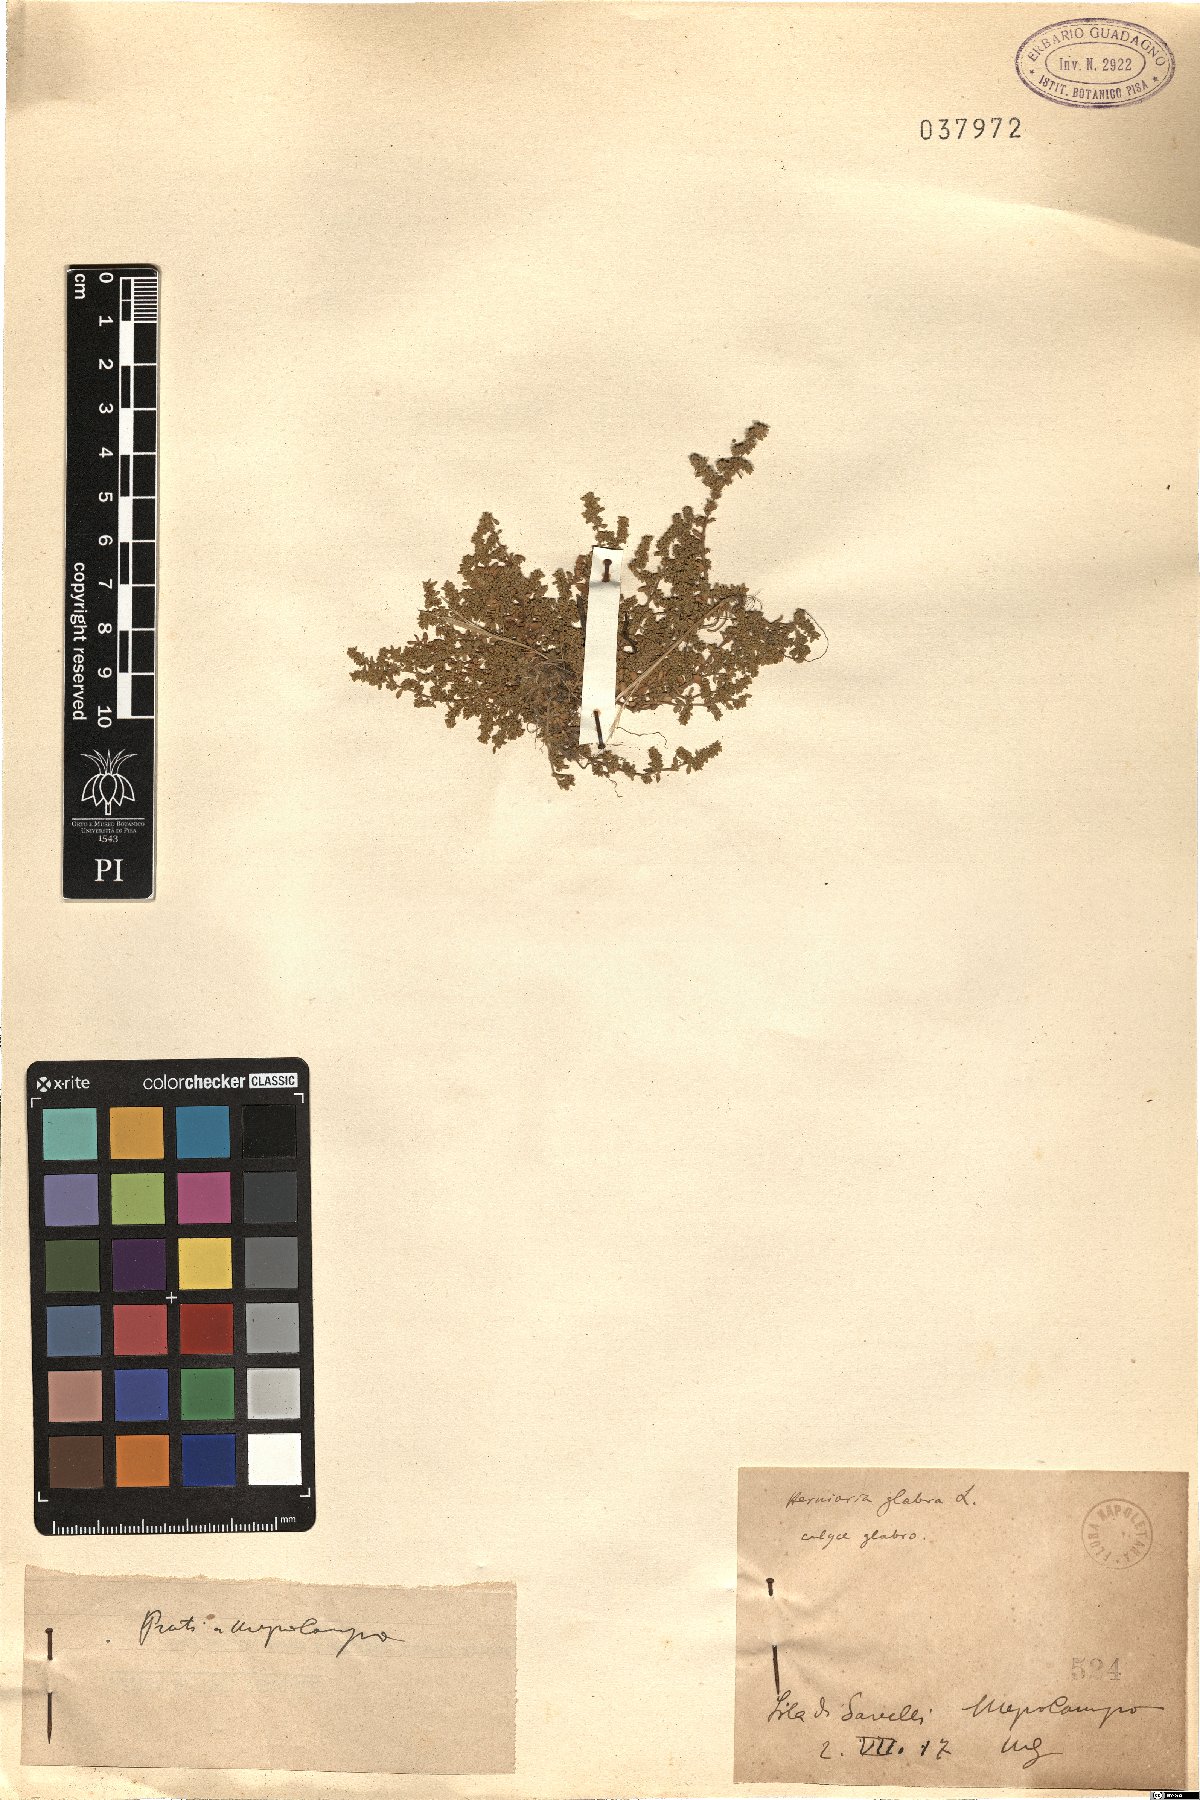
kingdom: Plantae
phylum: Tracheophyta
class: Magnoliopsida
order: Caryophyllales
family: Caryophyllaceae
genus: Herniaria
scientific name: Herniaria glabra
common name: Smooth rupturewort
